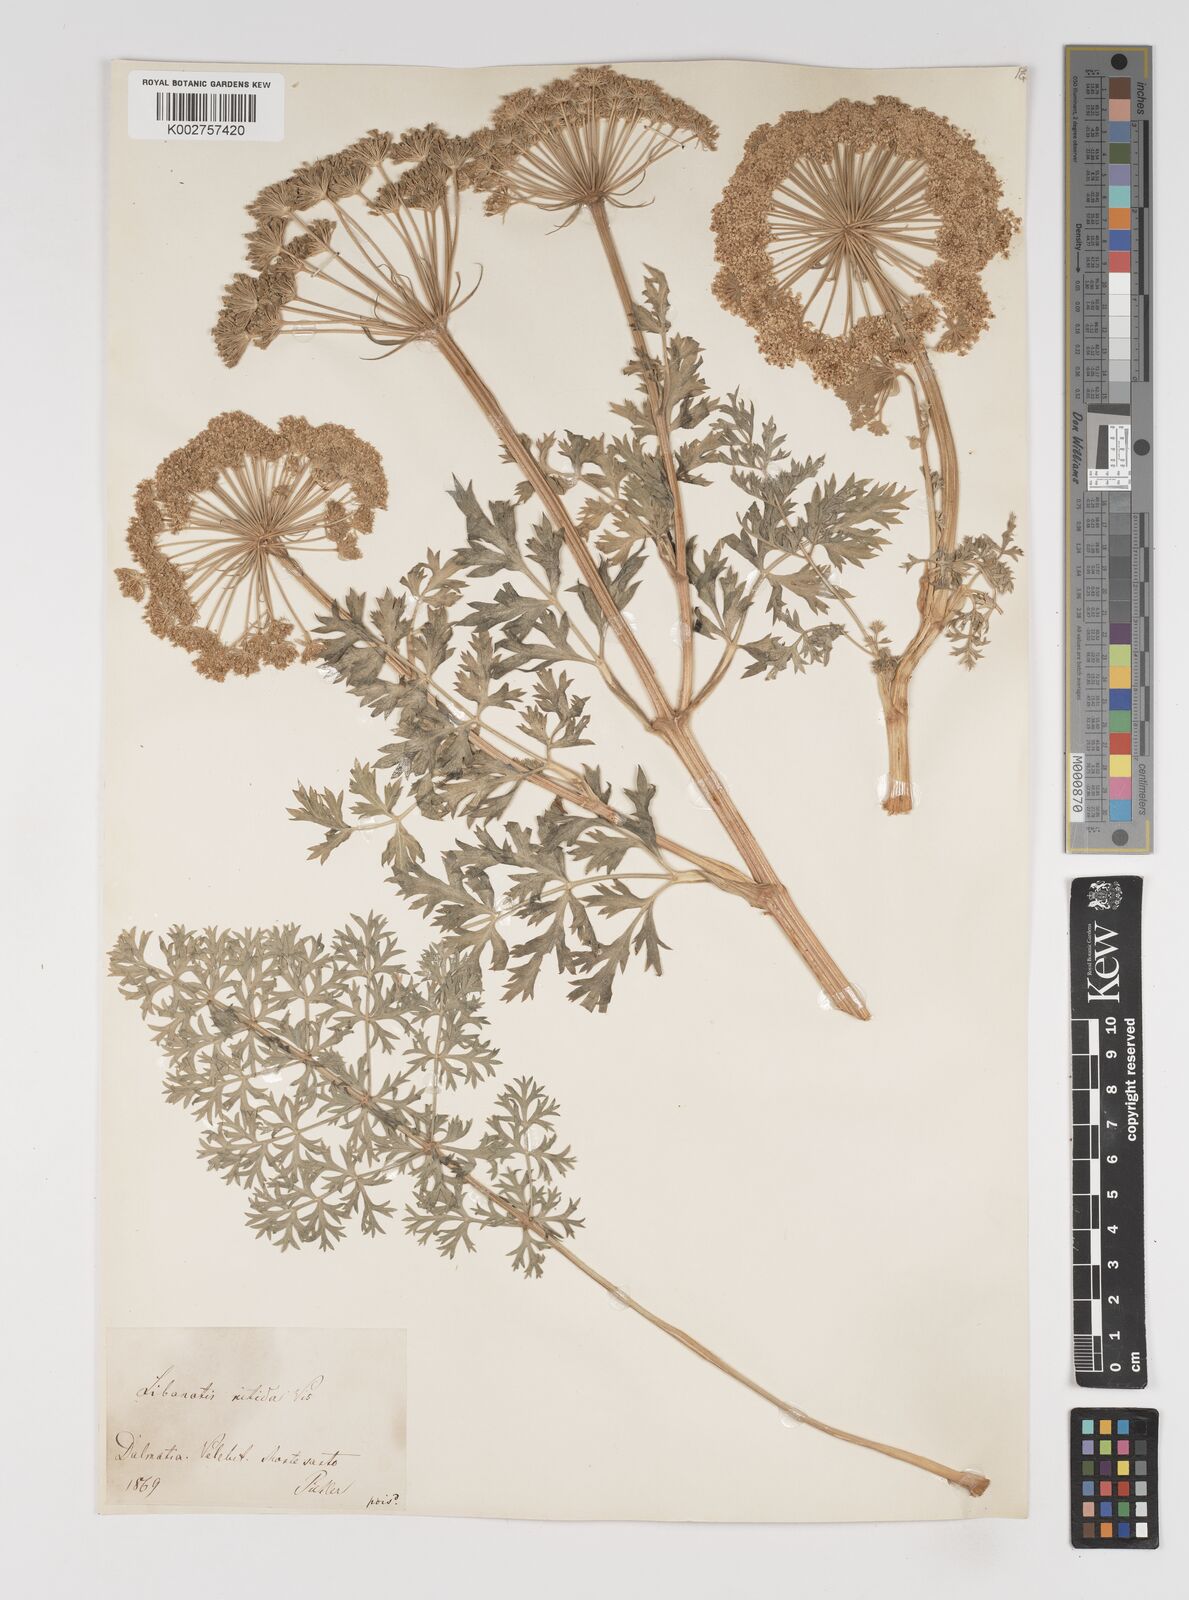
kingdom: Plantae
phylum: Tracheophyta
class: Magnoliopsida
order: Apiales
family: Apiaceae
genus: Stenocoelium
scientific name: Stenocoelium athamantoides
